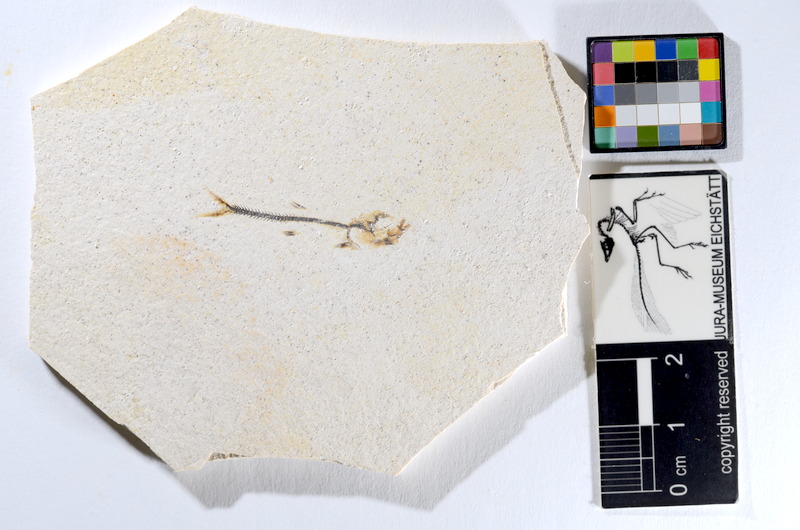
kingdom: Animalia
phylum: Chordata
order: Salmoniformes
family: Orthogonikleithridae
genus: Orthogonikleithrus
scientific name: Orthogonikleithrus hoelli
